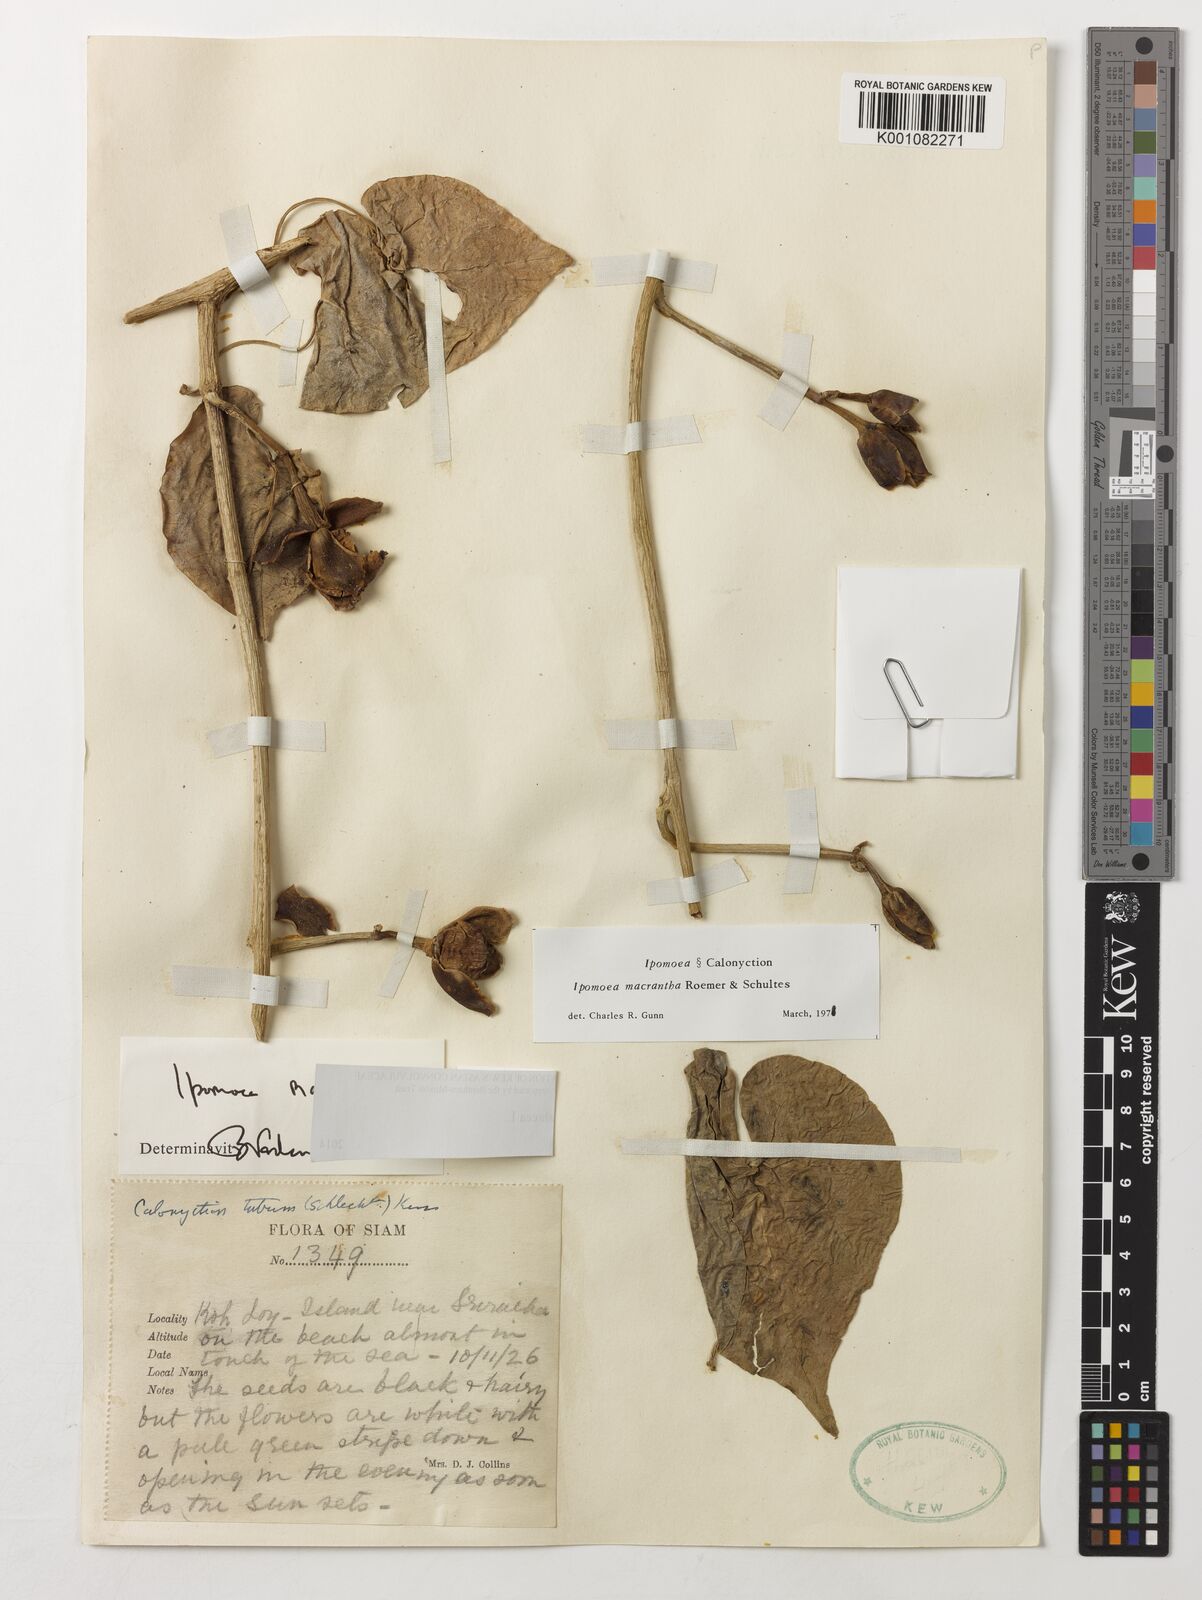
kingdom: Plantae
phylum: Tracheophyta
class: Magnoliopsida
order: Solanales
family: Convolvulaceae
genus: Ipomoea
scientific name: Ipomoea violacea
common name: Beach moonflower
